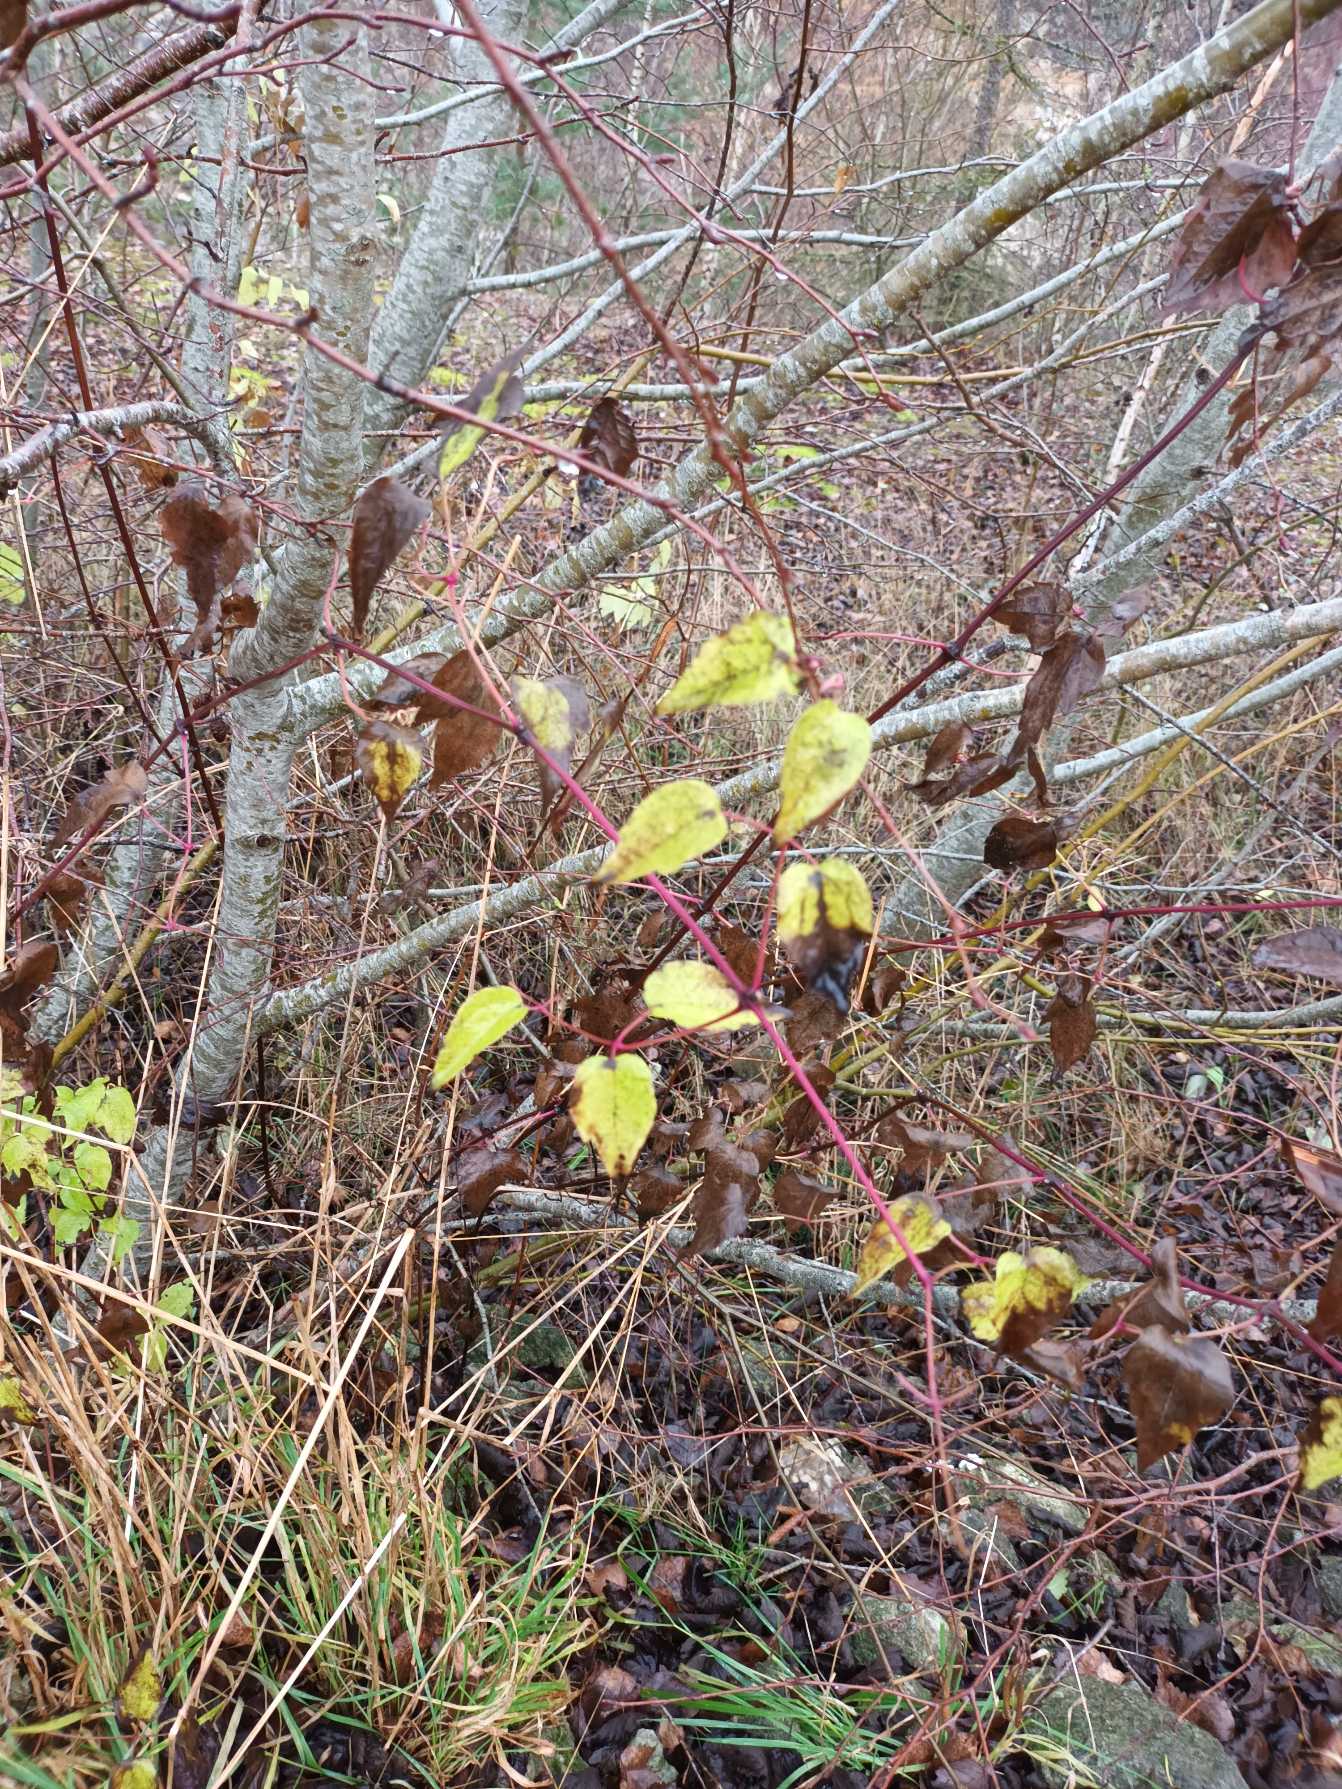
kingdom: Plantae
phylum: Tracheophyta
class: Magnoliopsida
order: Ranunculales
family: Ranunculaceae
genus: Clematis
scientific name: Clematis vitalba
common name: Skovranke
